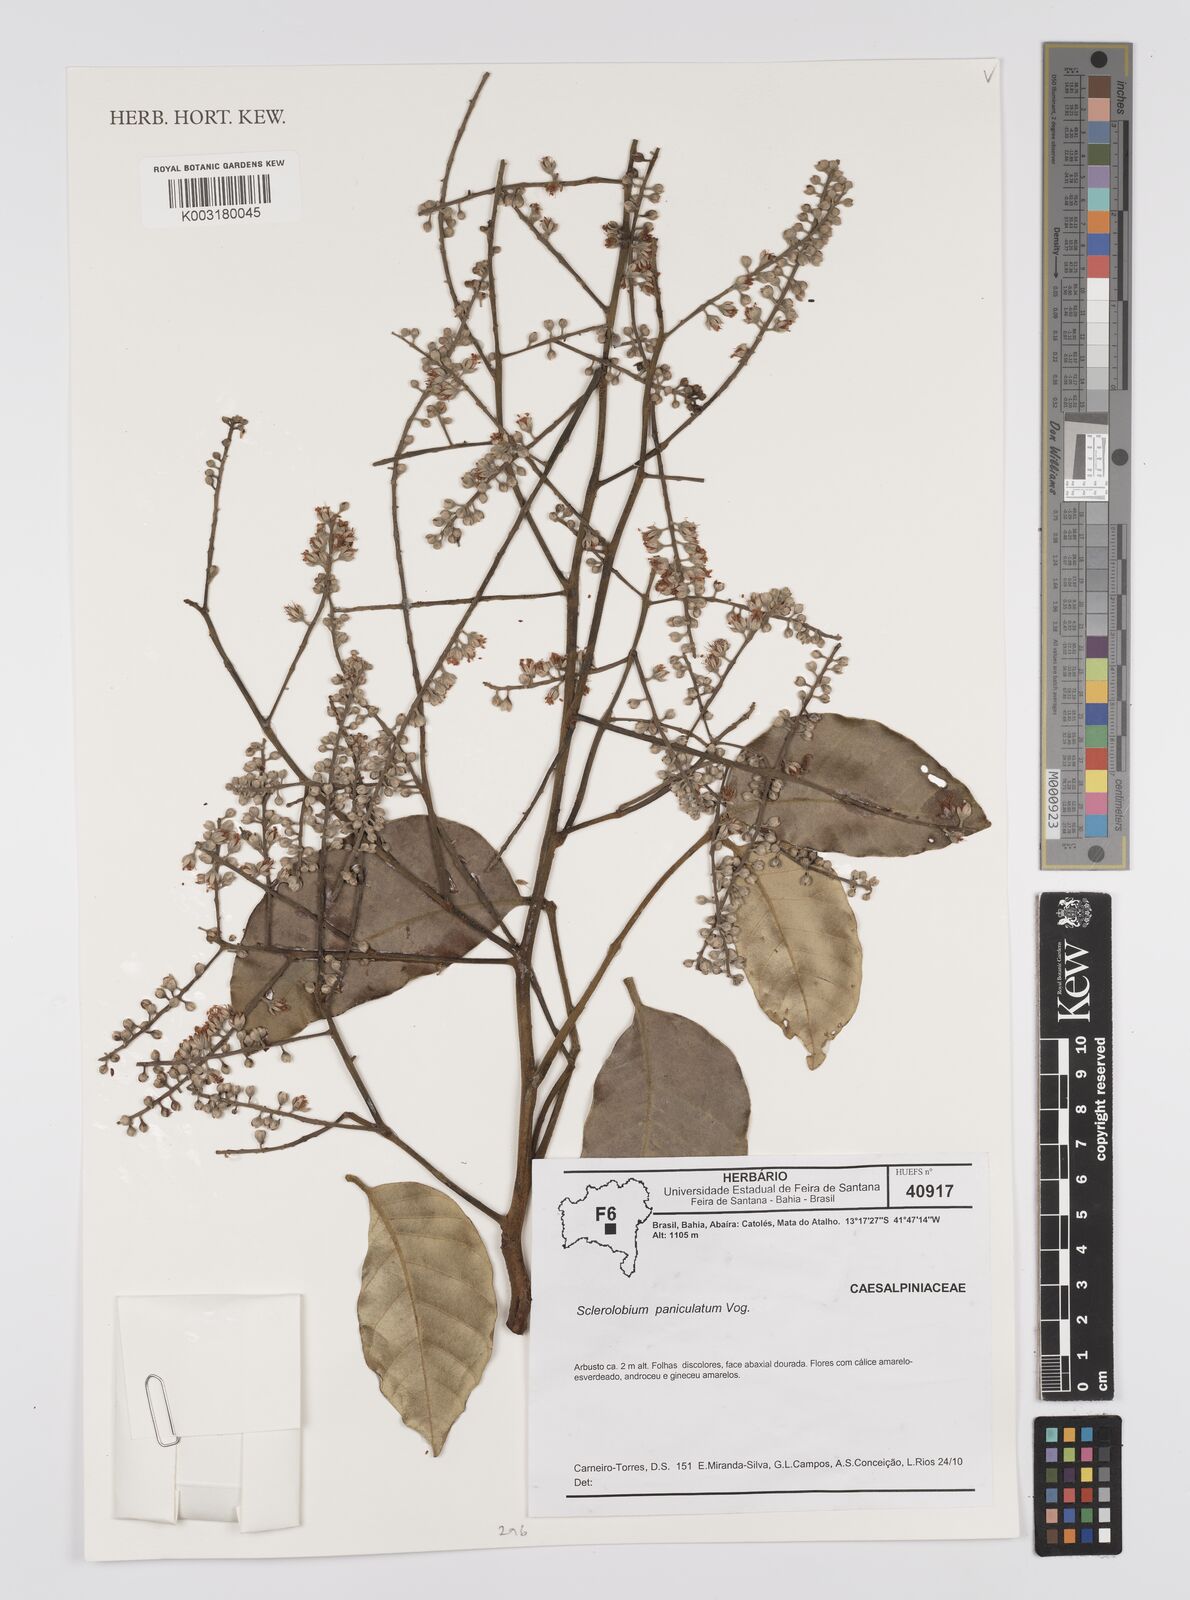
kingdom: Plantae
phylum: Tracheophyta
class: Magnoliopsida
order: Fabales
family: Fabaceae
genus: Tachigali
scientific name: Tachigali subvelutina
